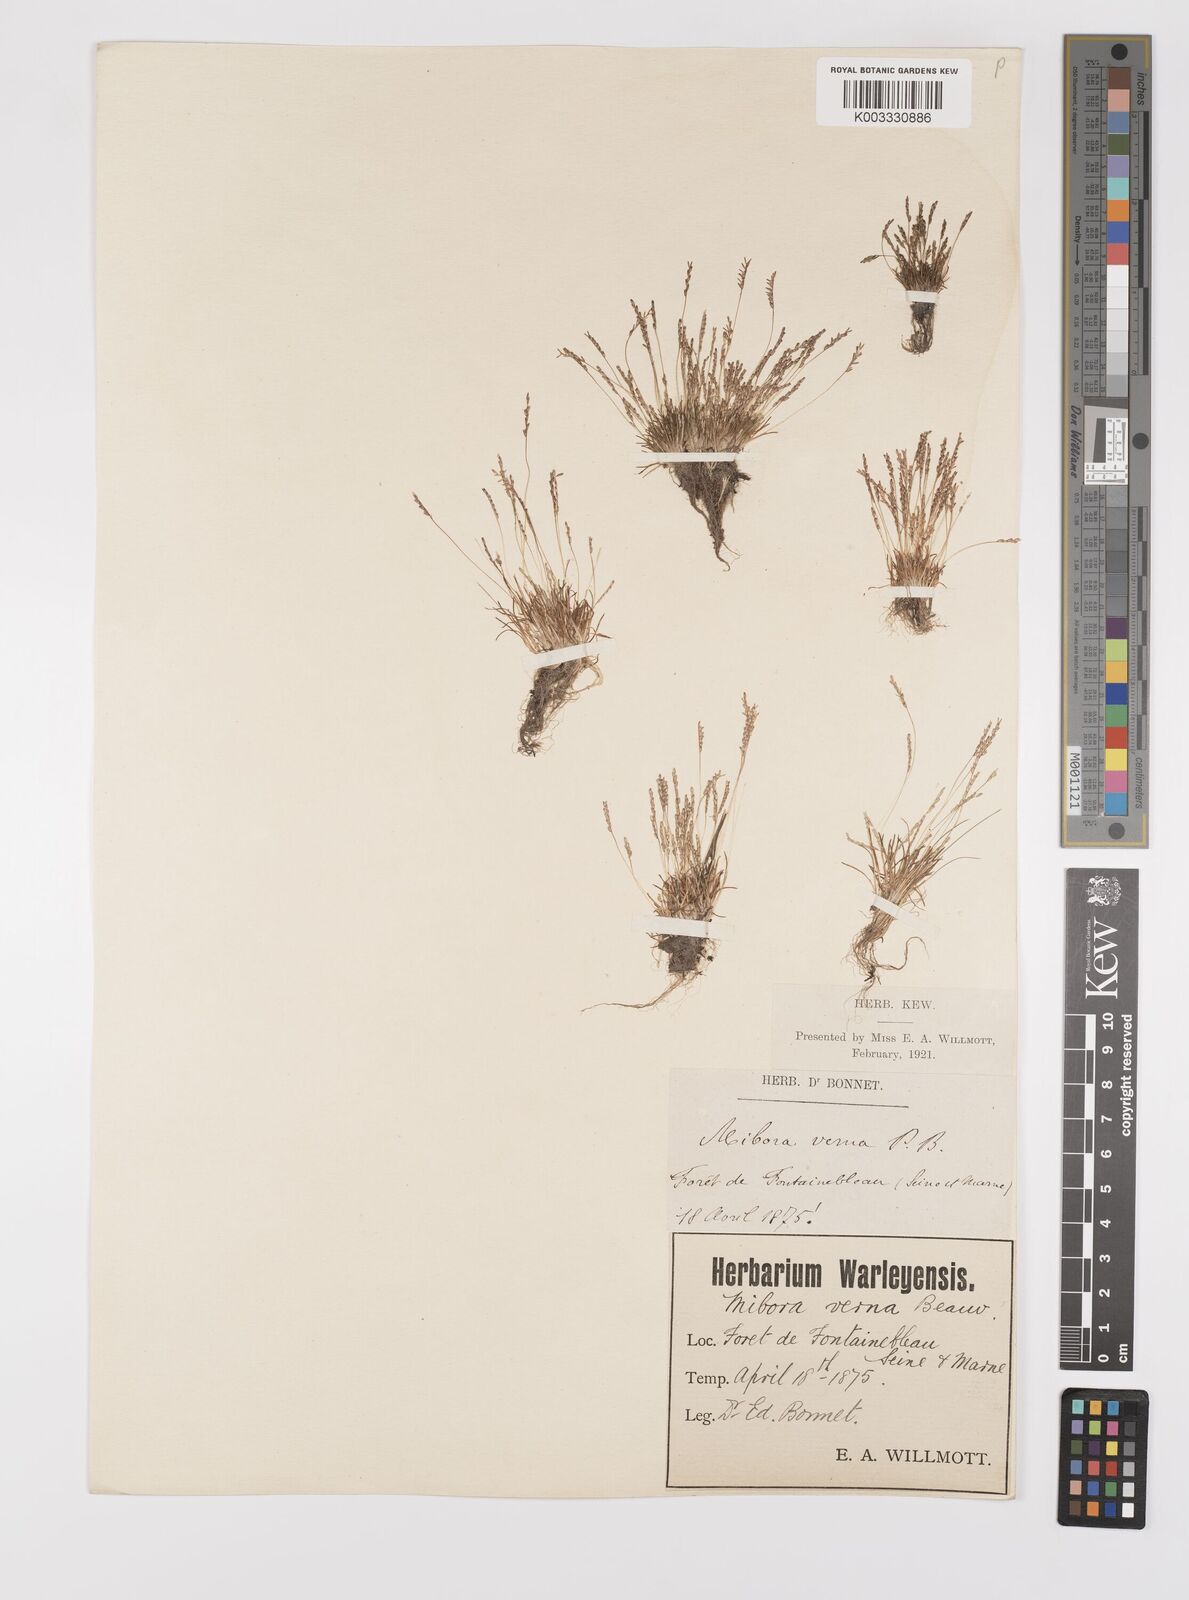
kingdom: Plantae
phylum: Tracheophyta
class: Liliopsida
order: Poales
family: Poaceae
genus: Mibora
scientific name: Mibora minima
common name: Early sand-grass
